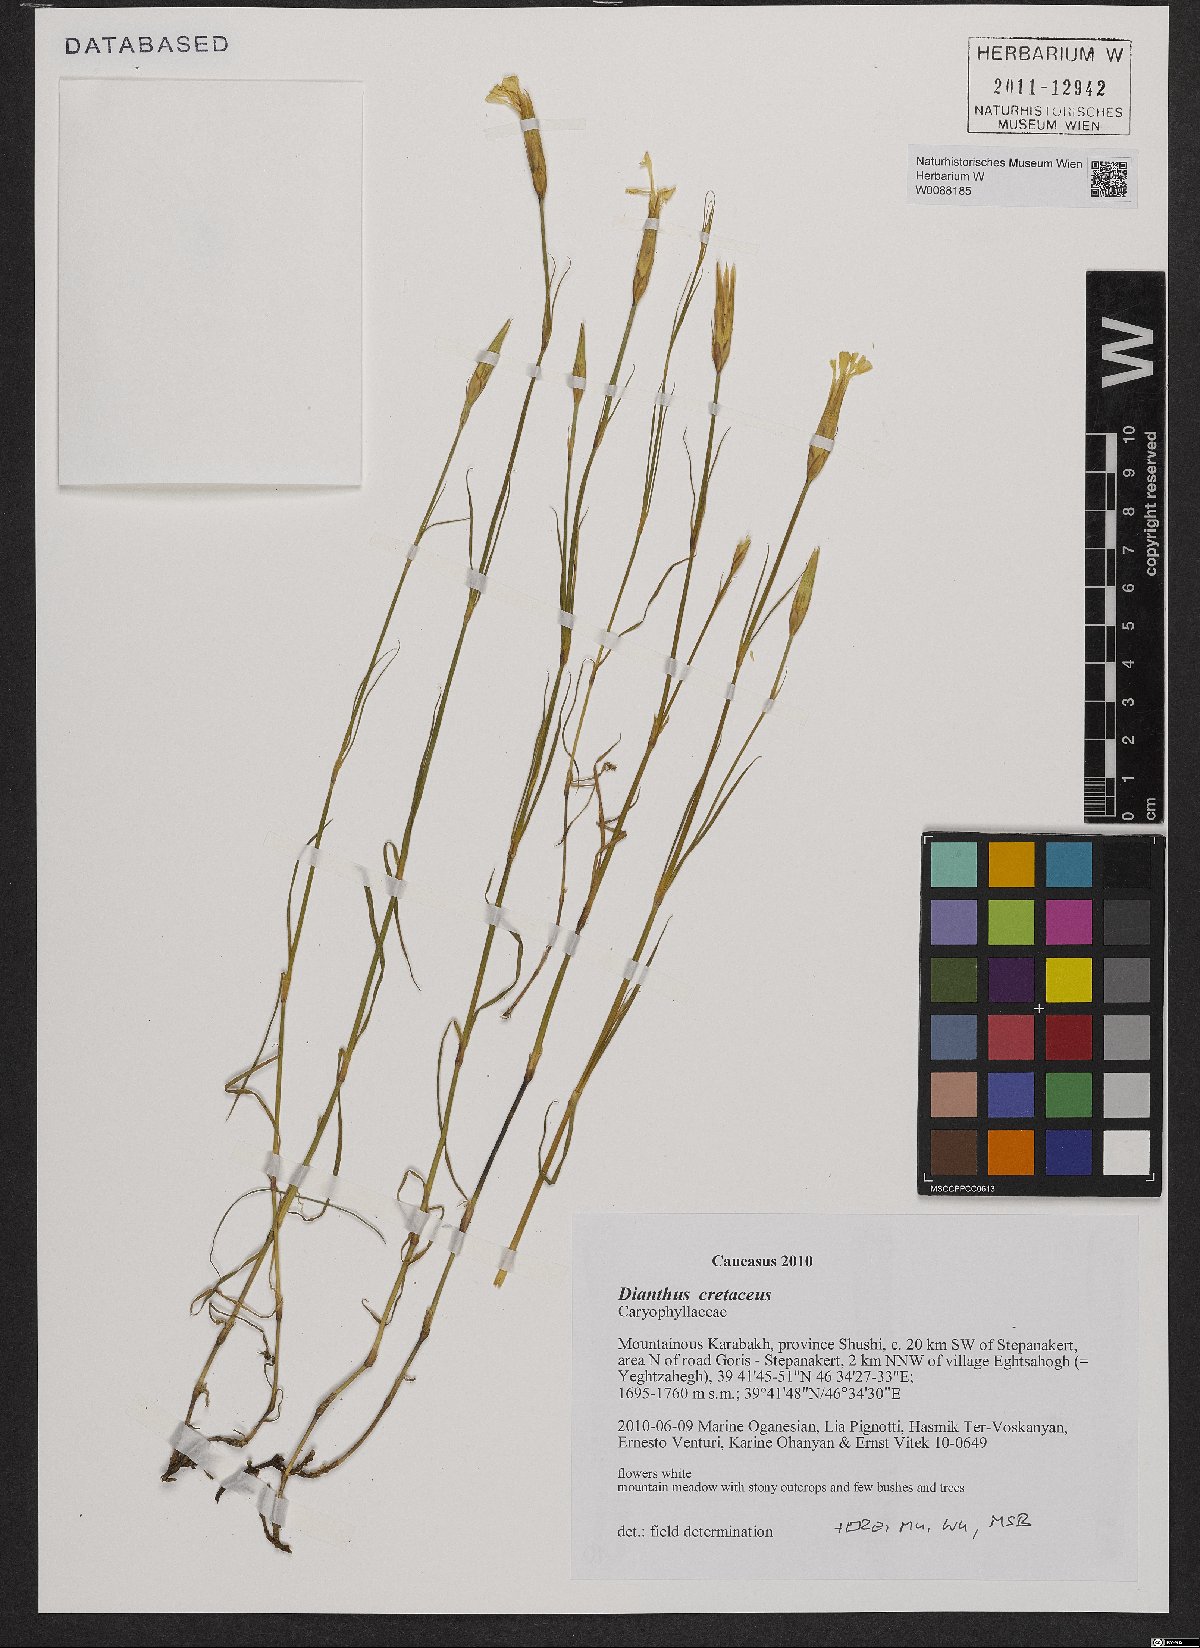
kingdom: Plantae
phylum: Tracheophyta
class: Magnoliopsida
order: Caryophyllales
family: Caryophyllaceae
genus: Dianthus
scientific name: Dianthus cretaceus
